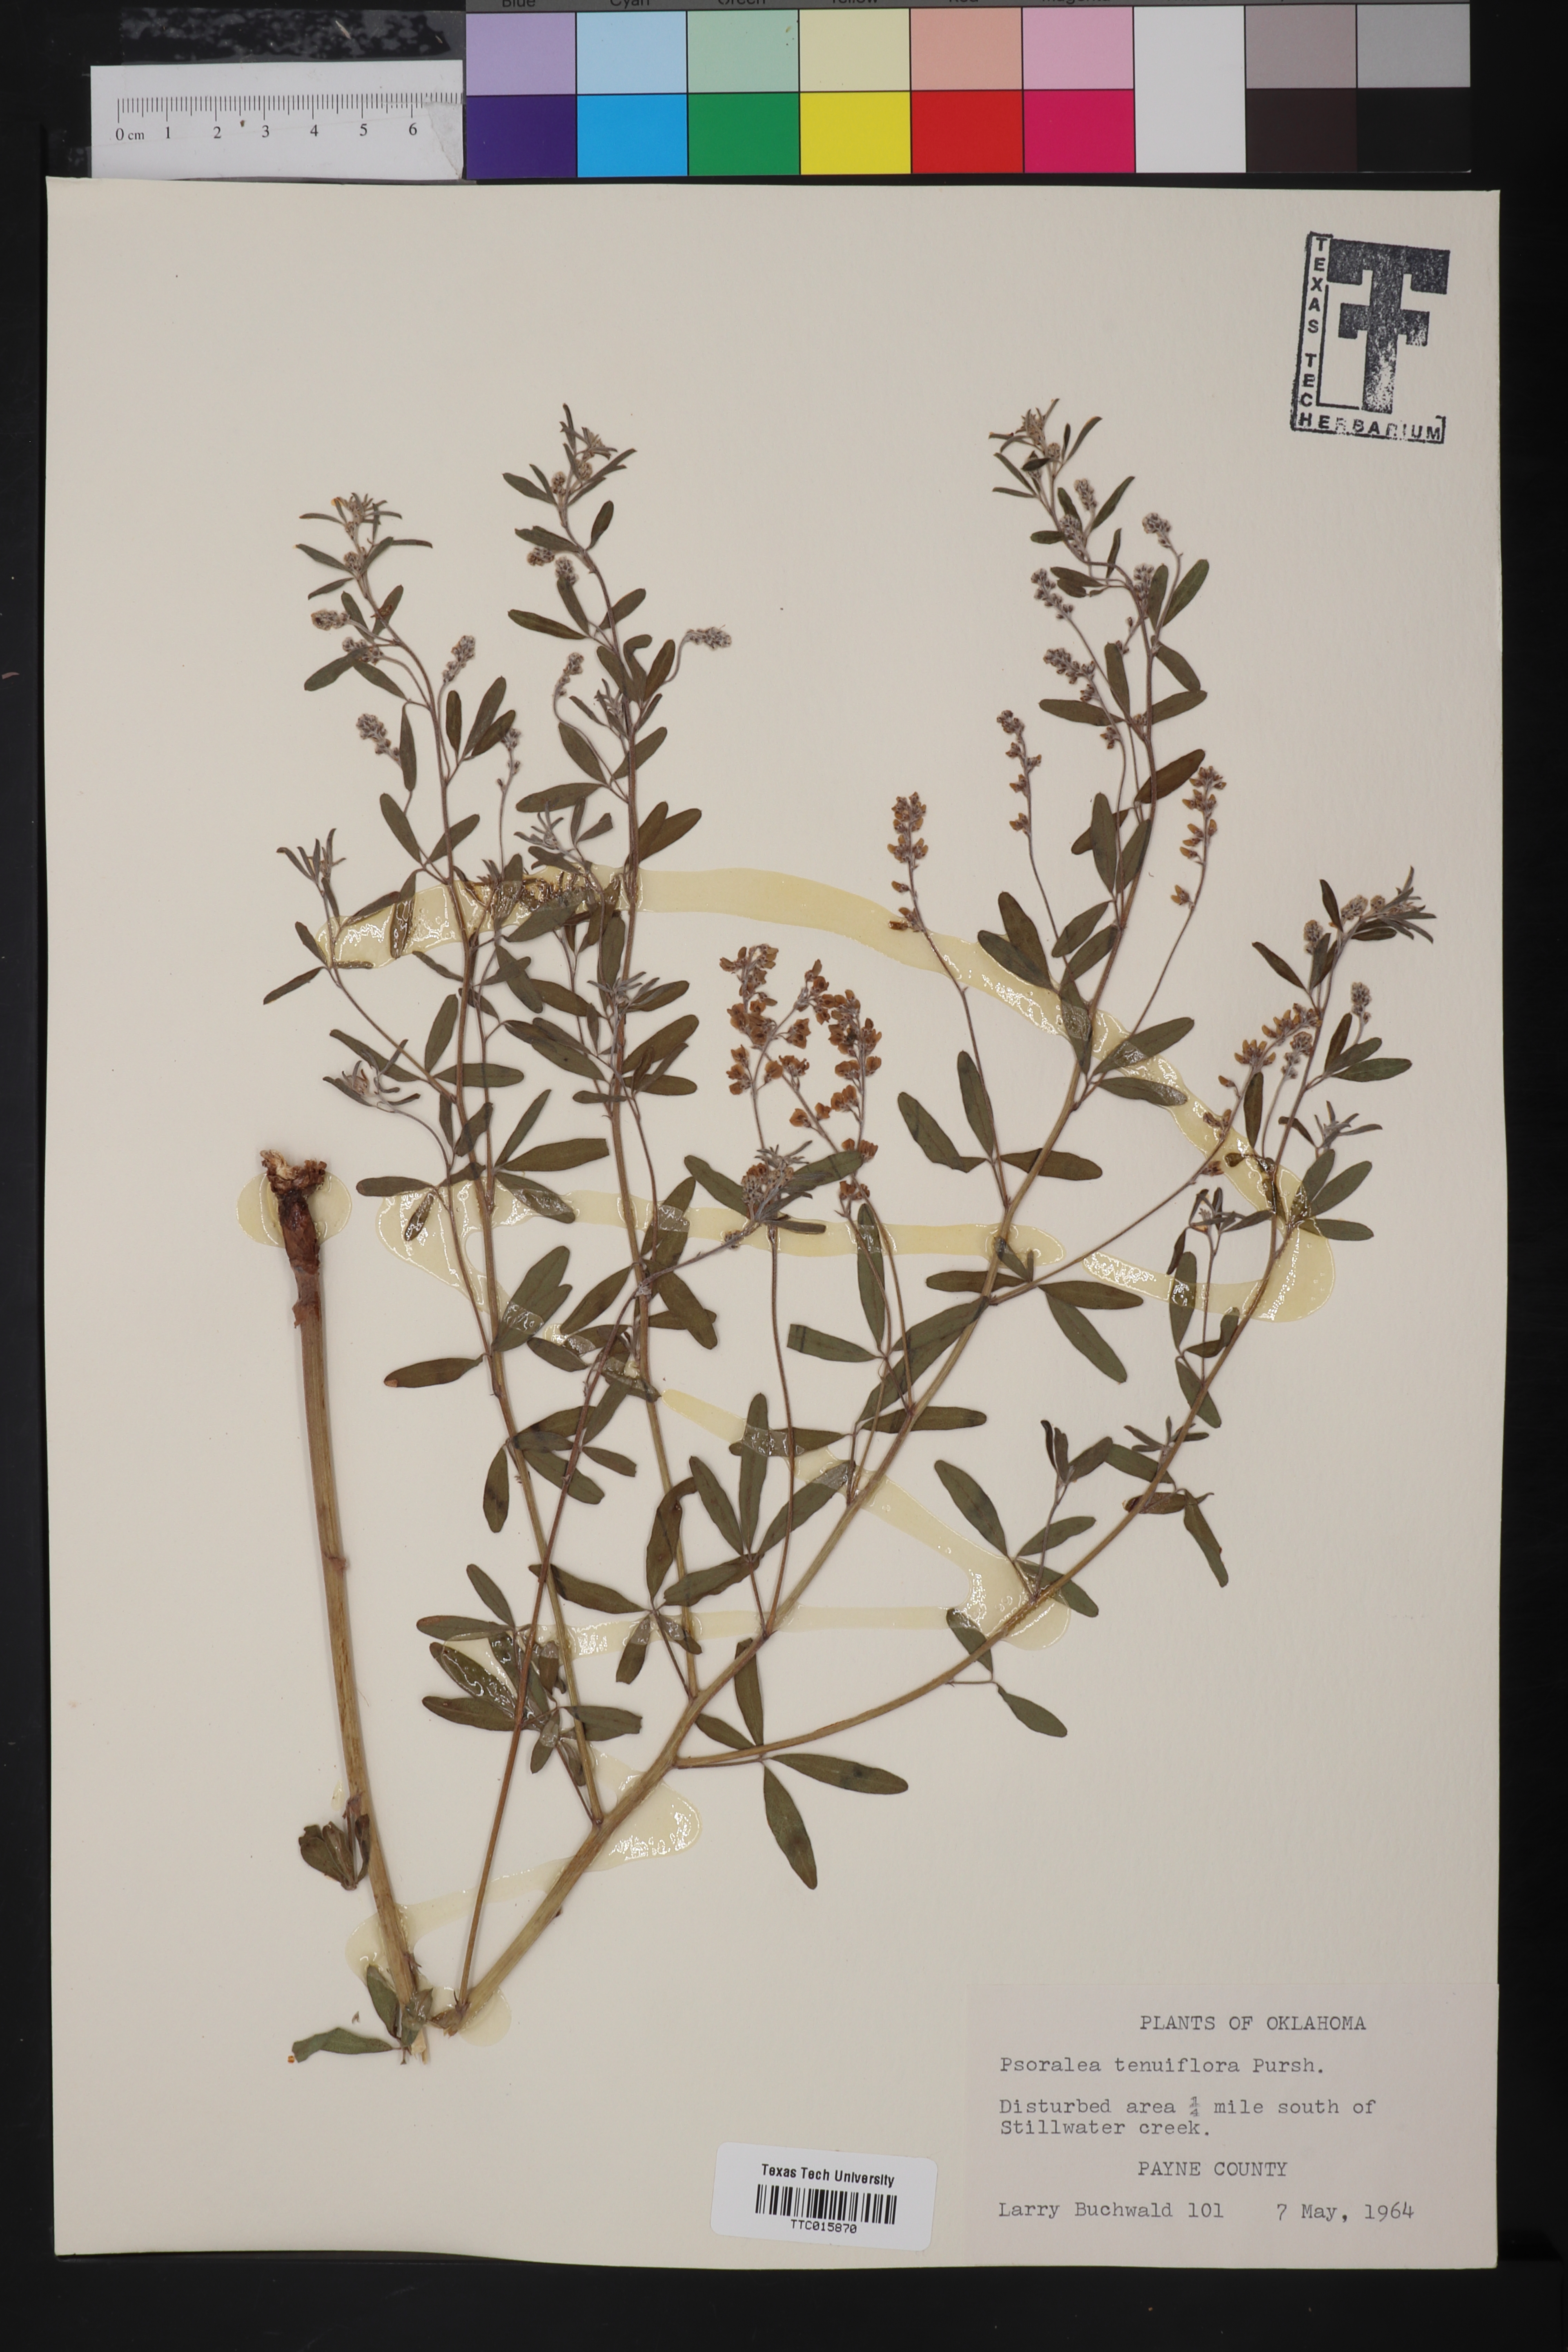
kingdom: Plantae
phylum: Tracheophyta
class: Magnoliopsida
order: Fabales
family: Fabaceae
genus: Pediomelum
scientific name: Pediomelum tenuiflorum
